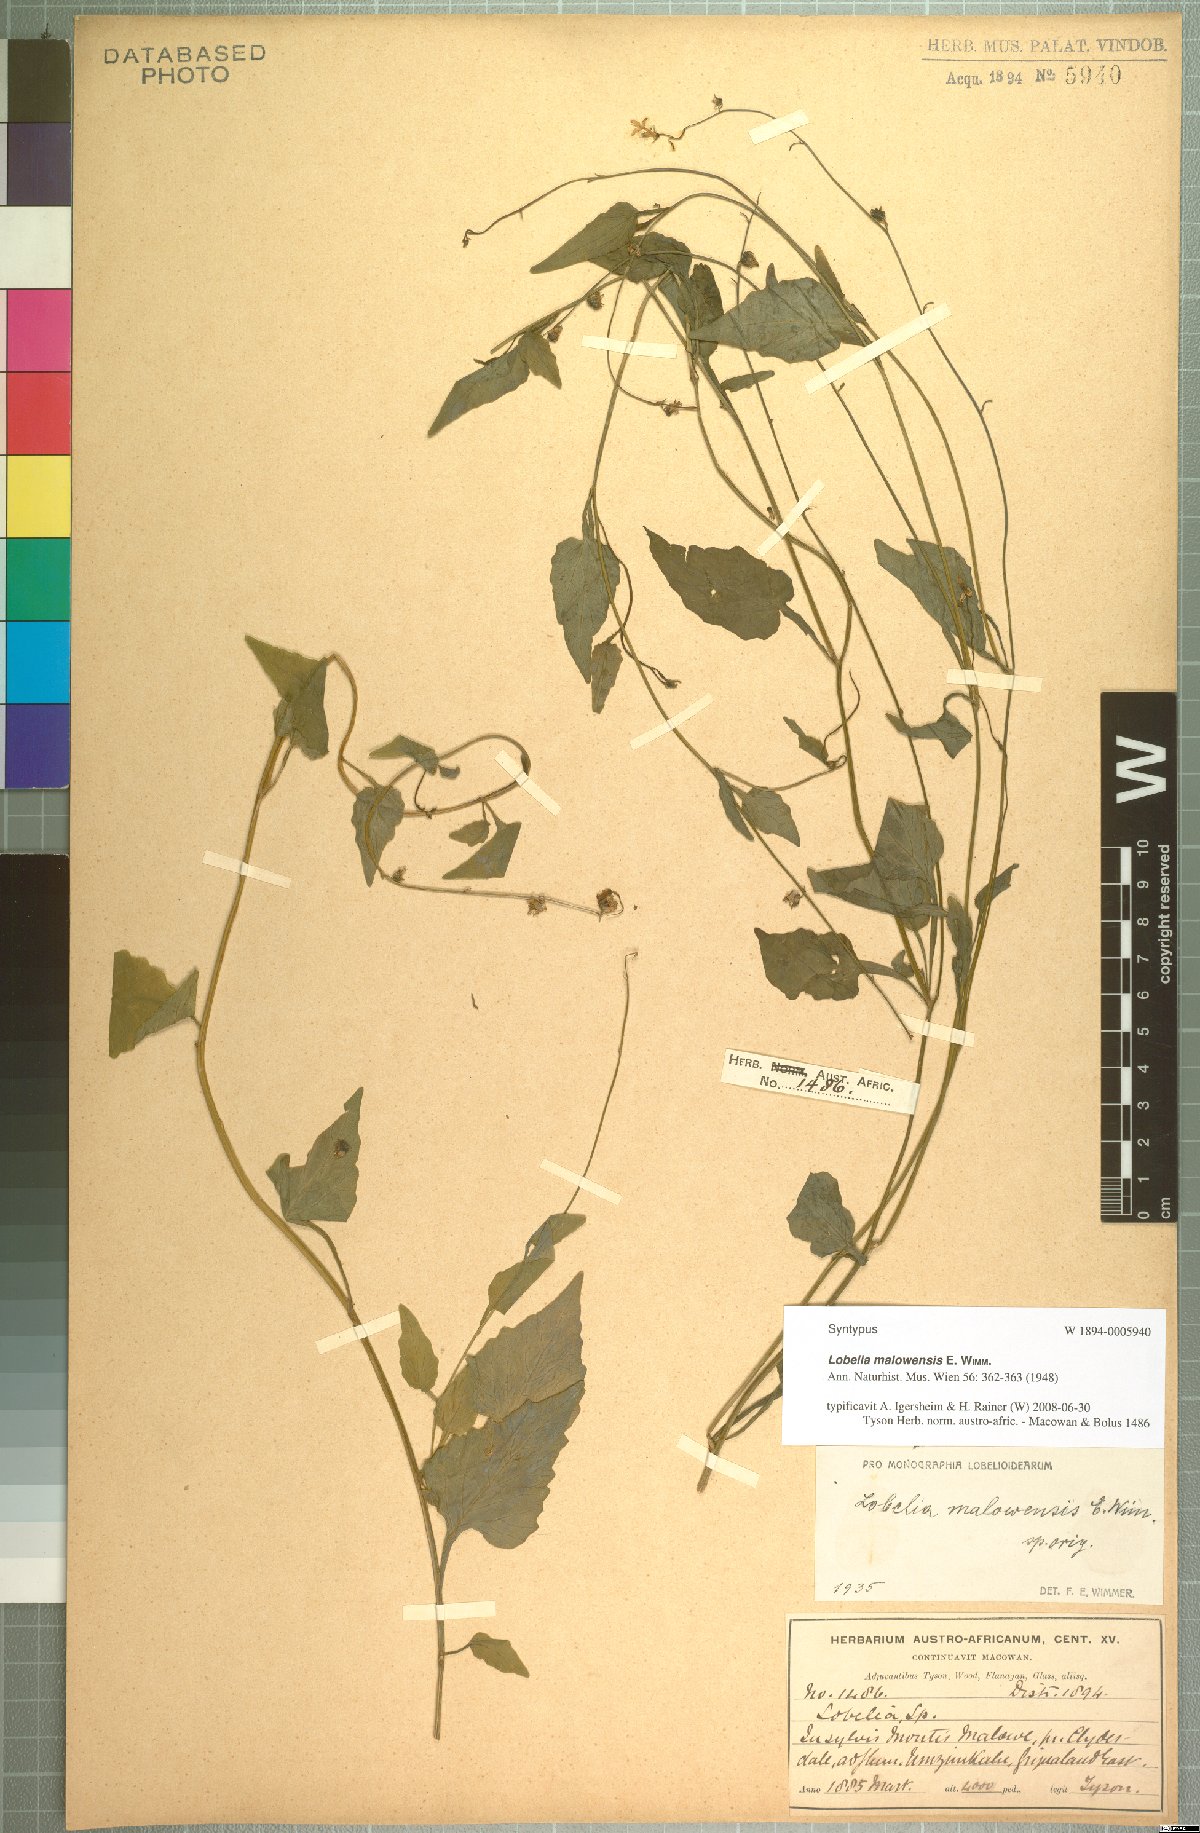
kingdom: Plantae
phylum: Tracheophyta
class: Magnoliopsida
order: Asterales
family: Campanulaceae
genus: Lobelia
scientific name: Lobelia malowensis
